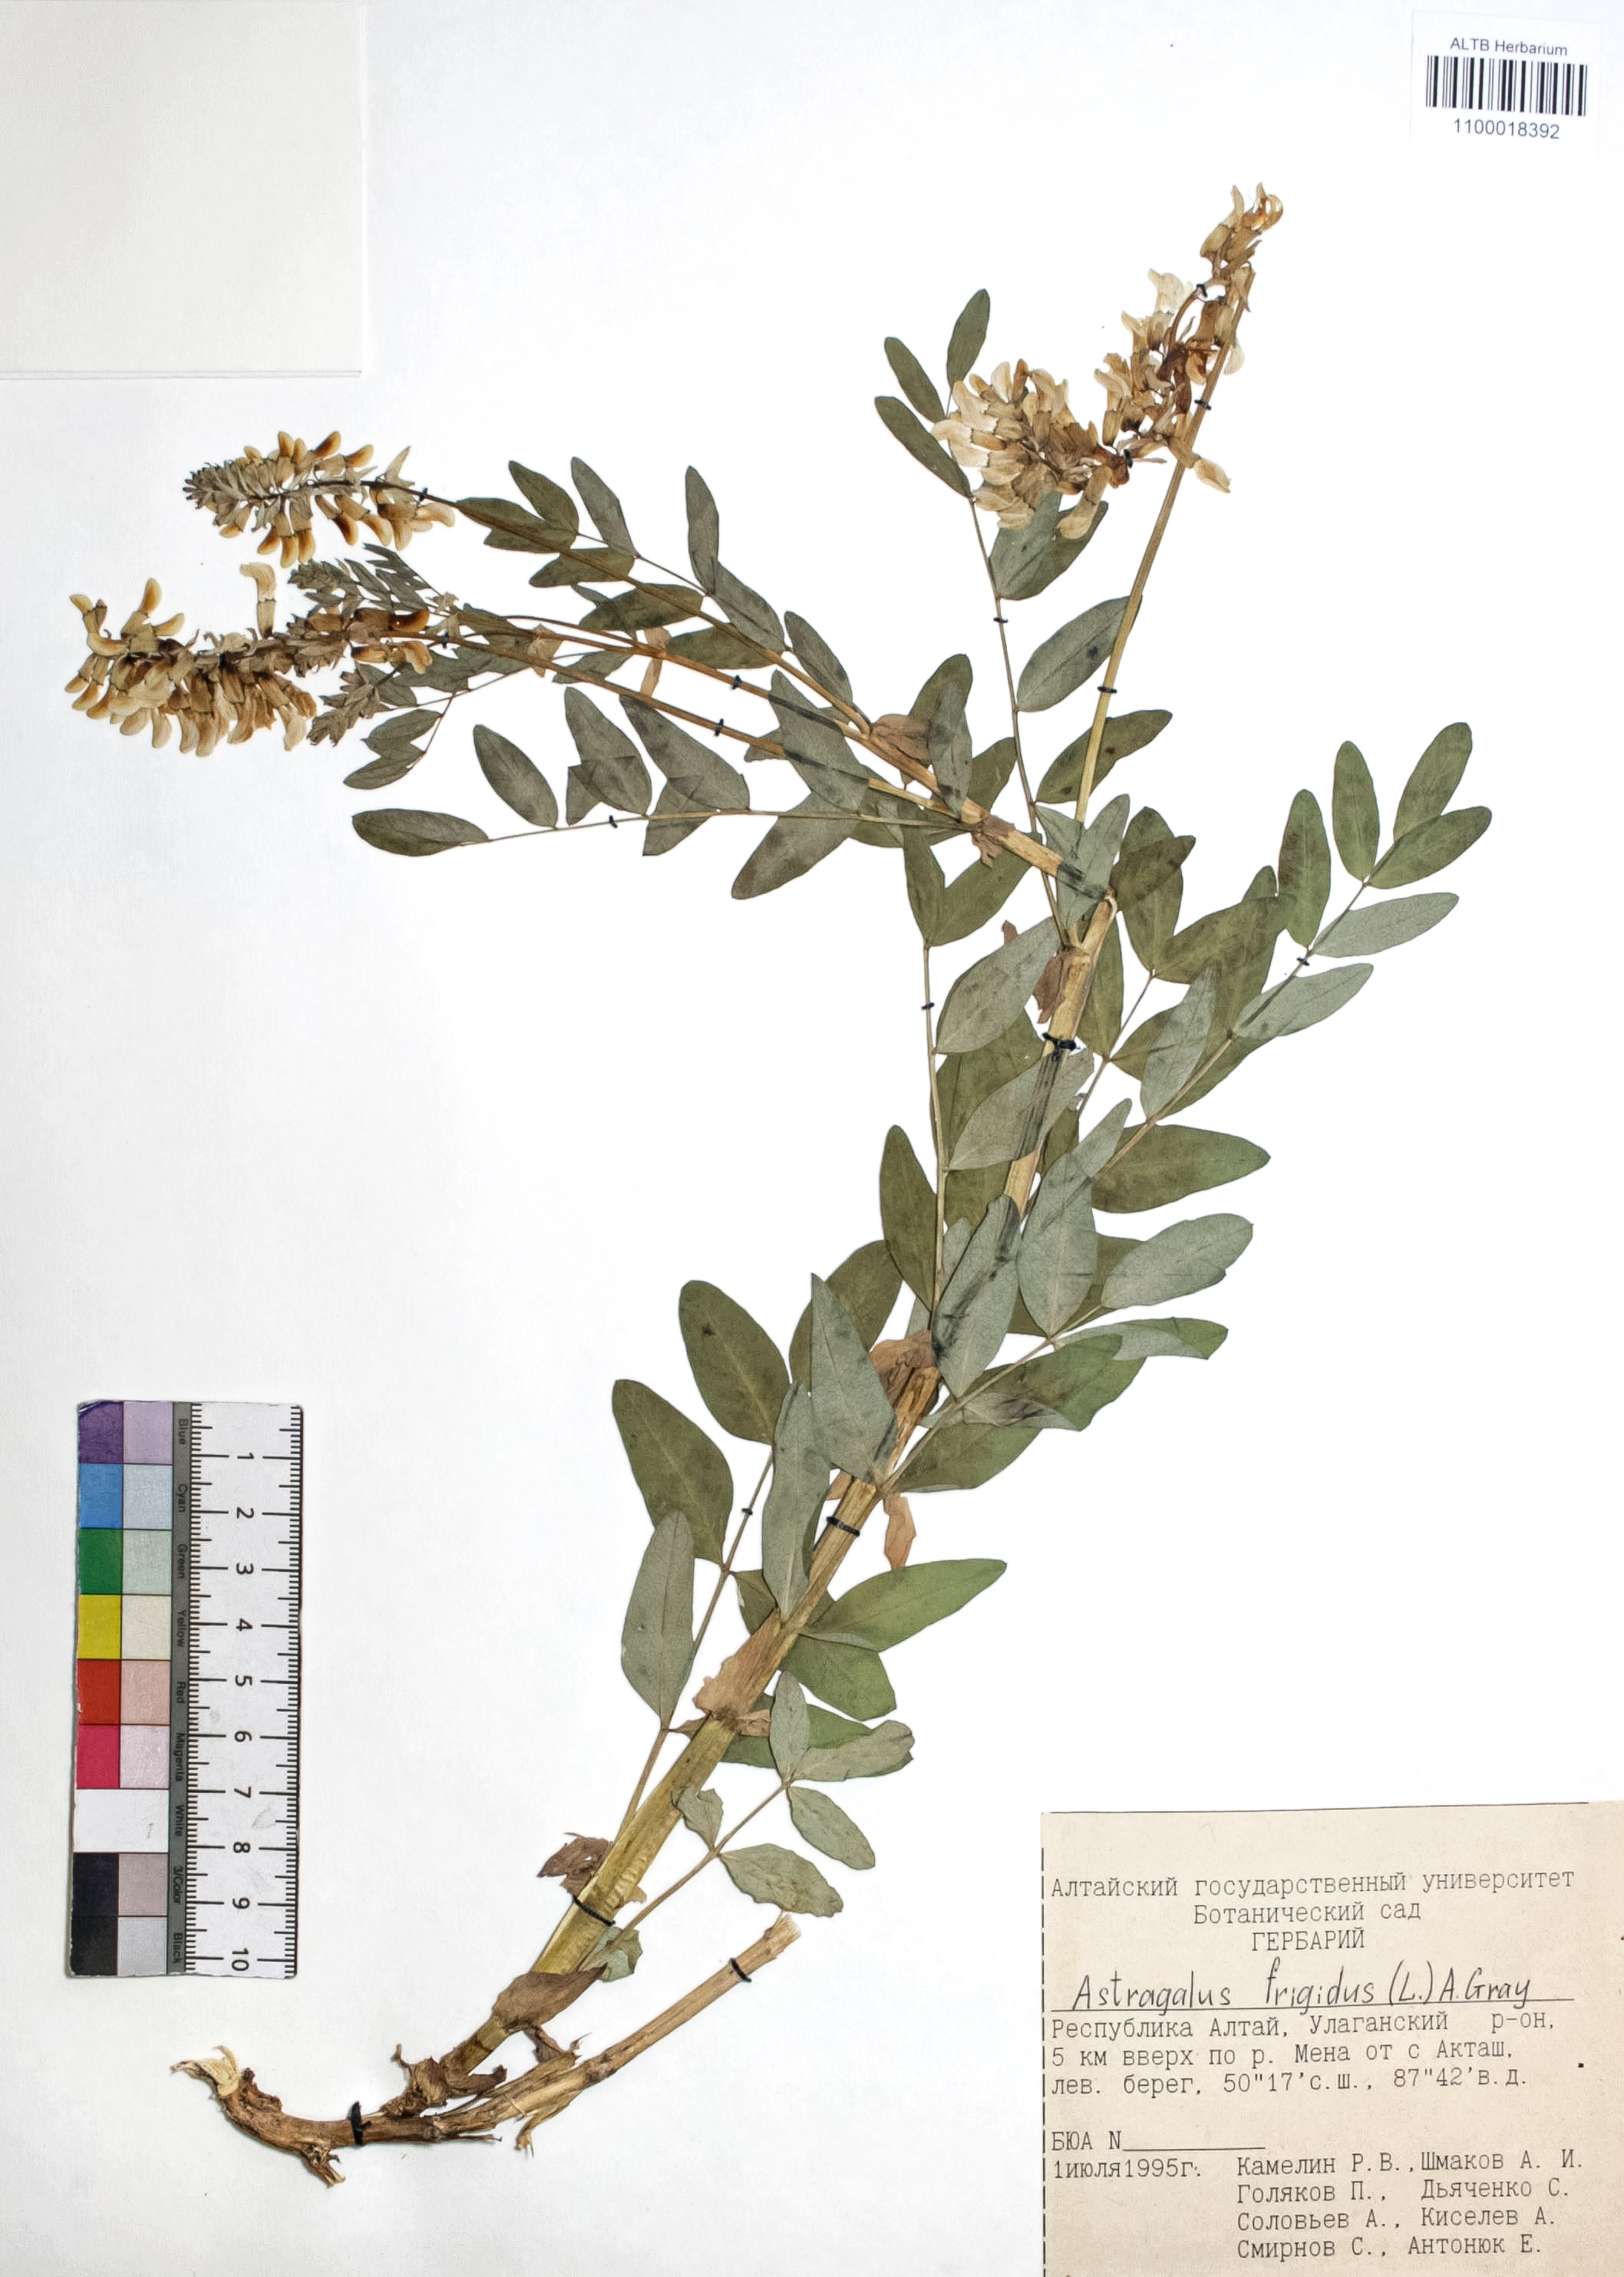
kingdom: Plantae
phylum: Tracheophyta
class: Magnoliopsida
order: Fabales
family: Fabaceae
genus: Astragalus
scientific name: Astragalus frigidus
